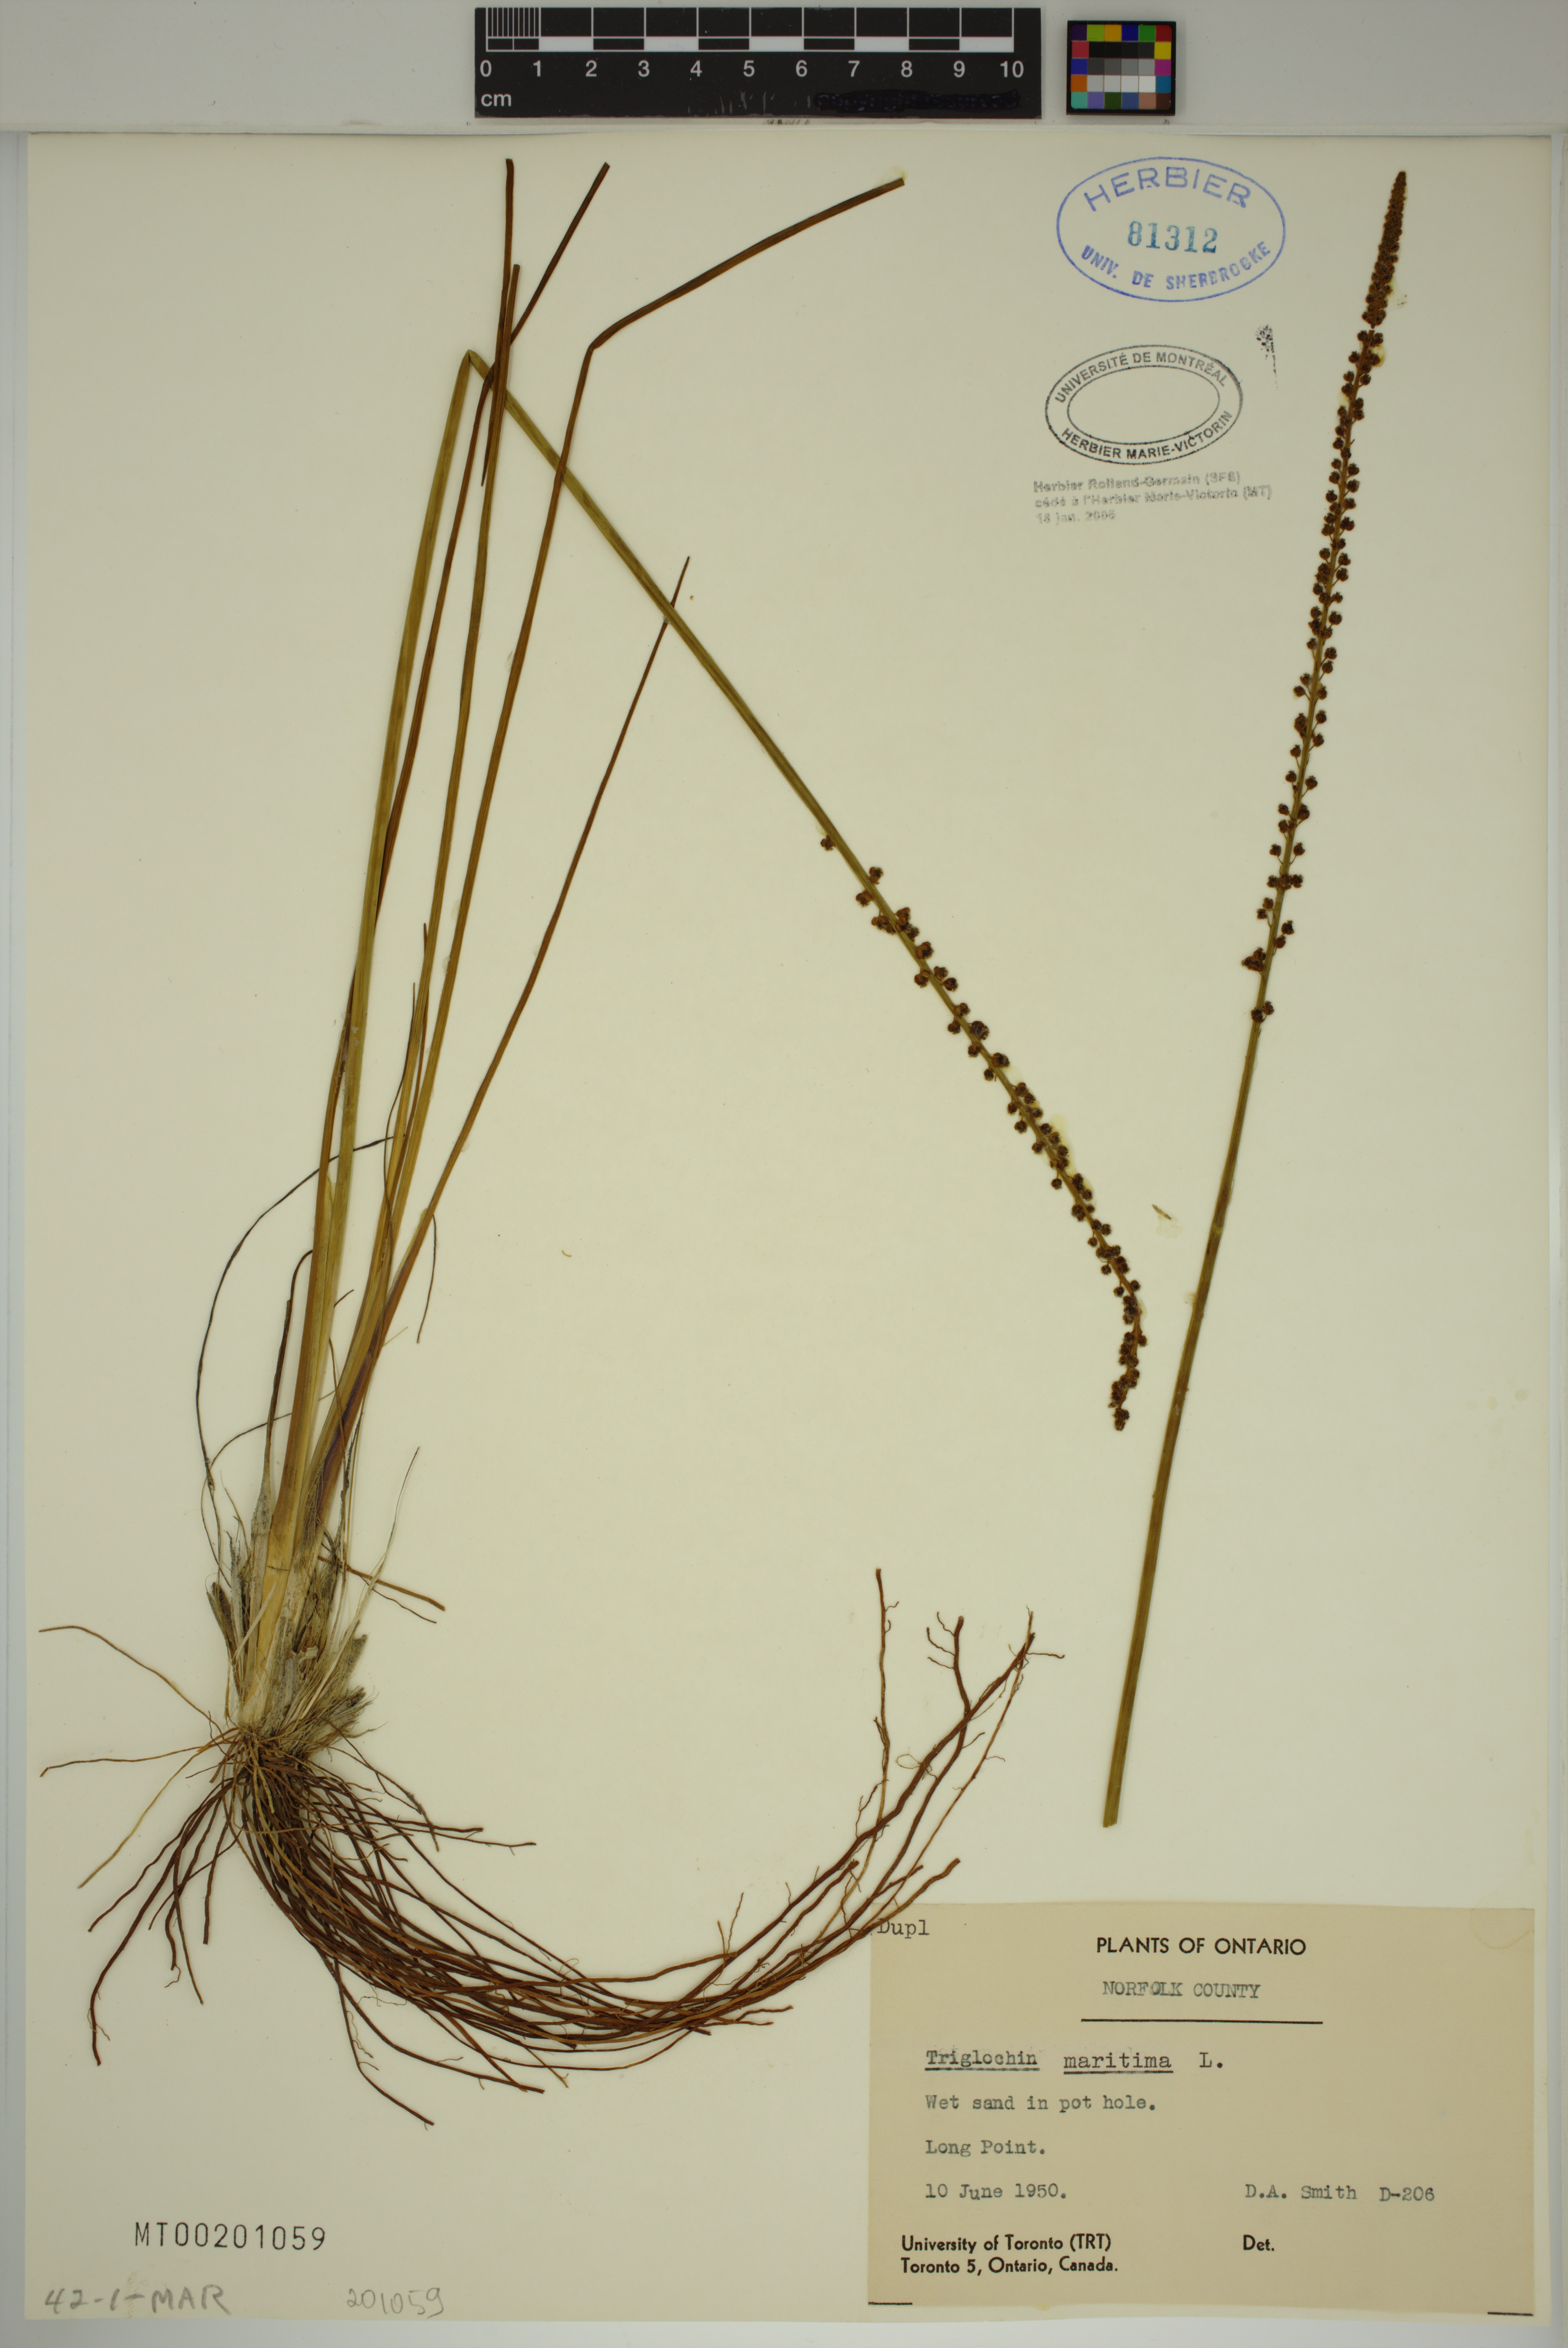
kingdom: Plantae
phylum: Tracheophyta
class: Liliopsida
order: Alismatales
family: Juncaginaceae
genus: Triglochin
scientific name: Triglochin maritima
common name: Sea arrowgrass
